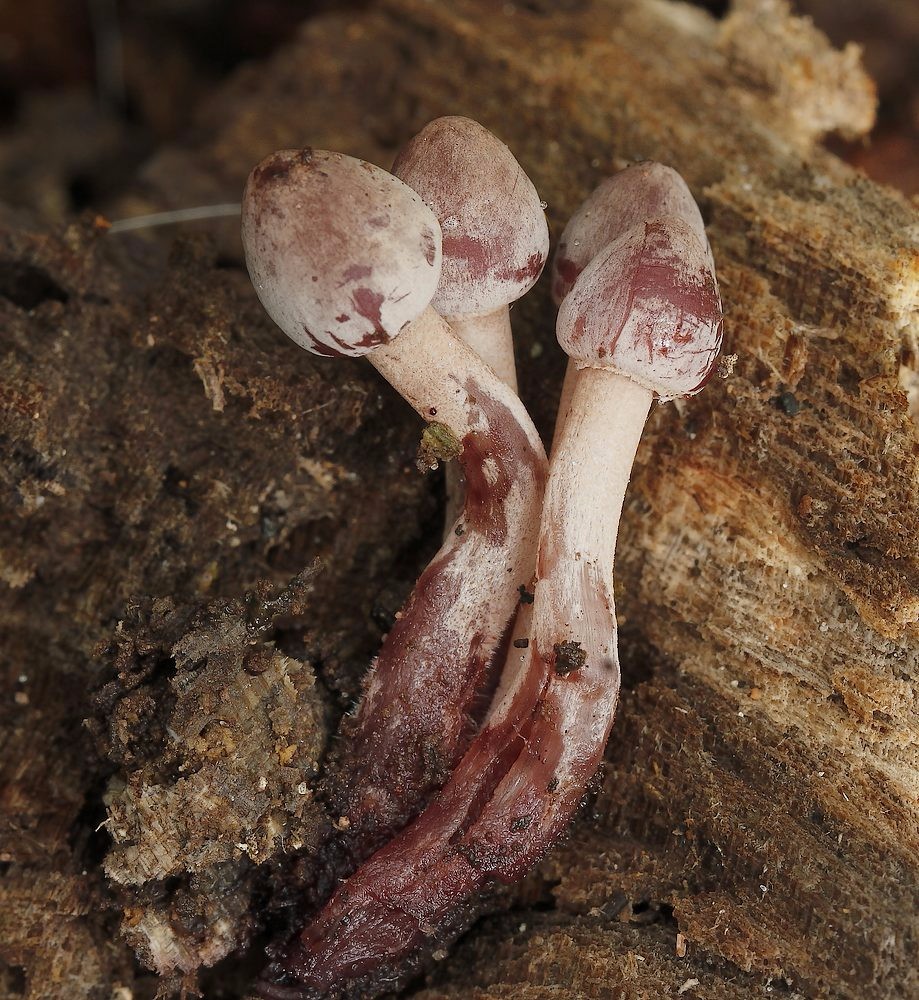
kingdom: Fungi
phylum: Basidiomycota
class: Agaricomycetes
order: Agaricales
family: Mycenaceae
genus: Mycena
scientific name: Mycena haematopus
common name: blødende huesvamp
